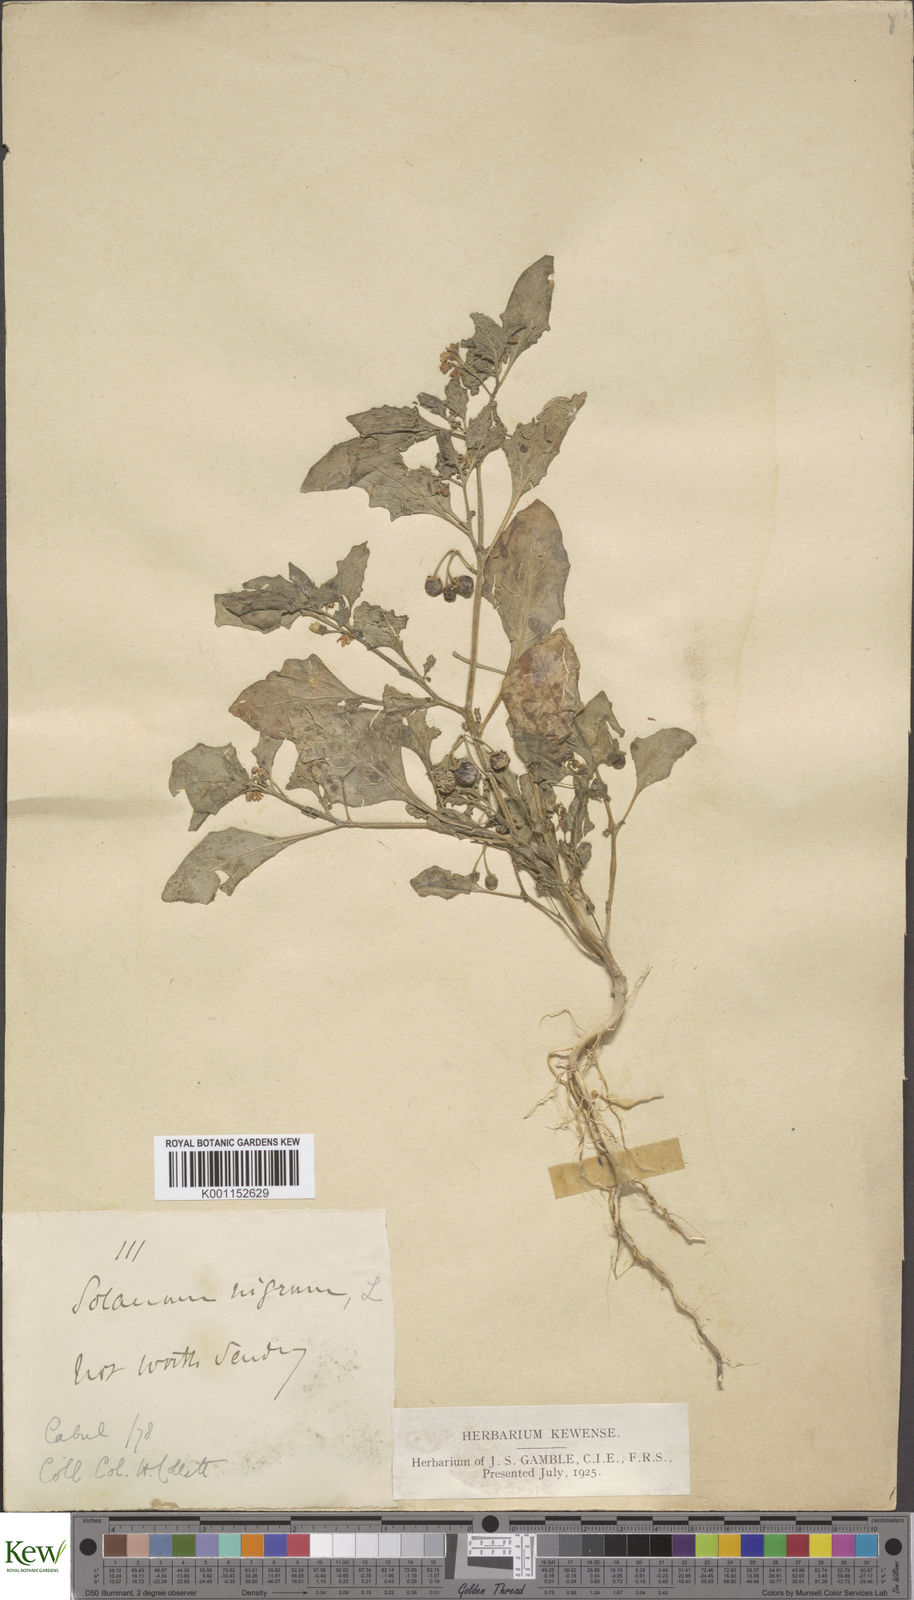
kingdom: Plantae
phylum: Tracheophyta
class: Magnoliopsida
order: Solanales
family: Solanaceae
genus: Solanum
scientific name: Solanum nigrum
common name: Black nightshade
